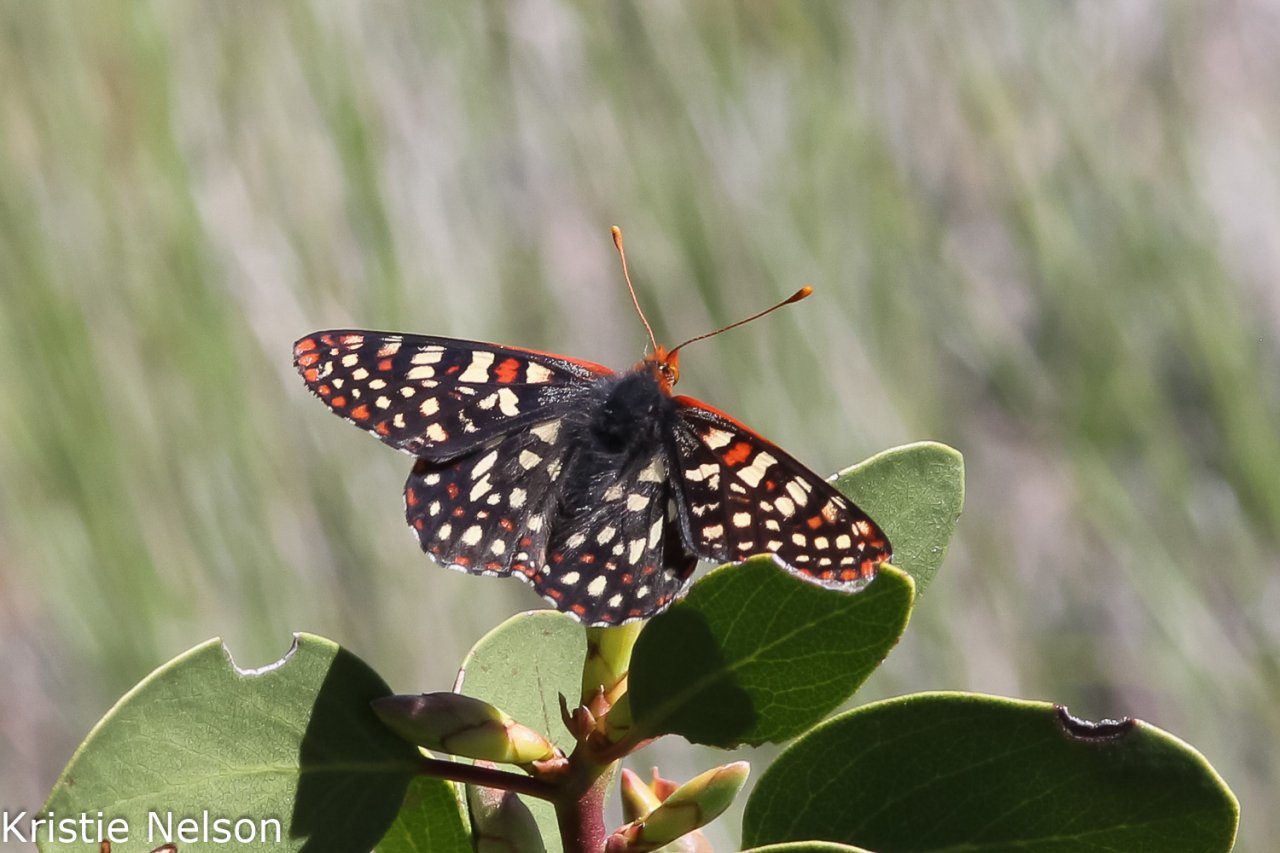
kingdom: Animalia
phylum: Arthropoda
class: Insecta
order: Lepidoptera
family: Nymphalidae
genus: Occidryas
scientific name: Occidryas chalcedona
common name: Chalcedon Checkerspot
